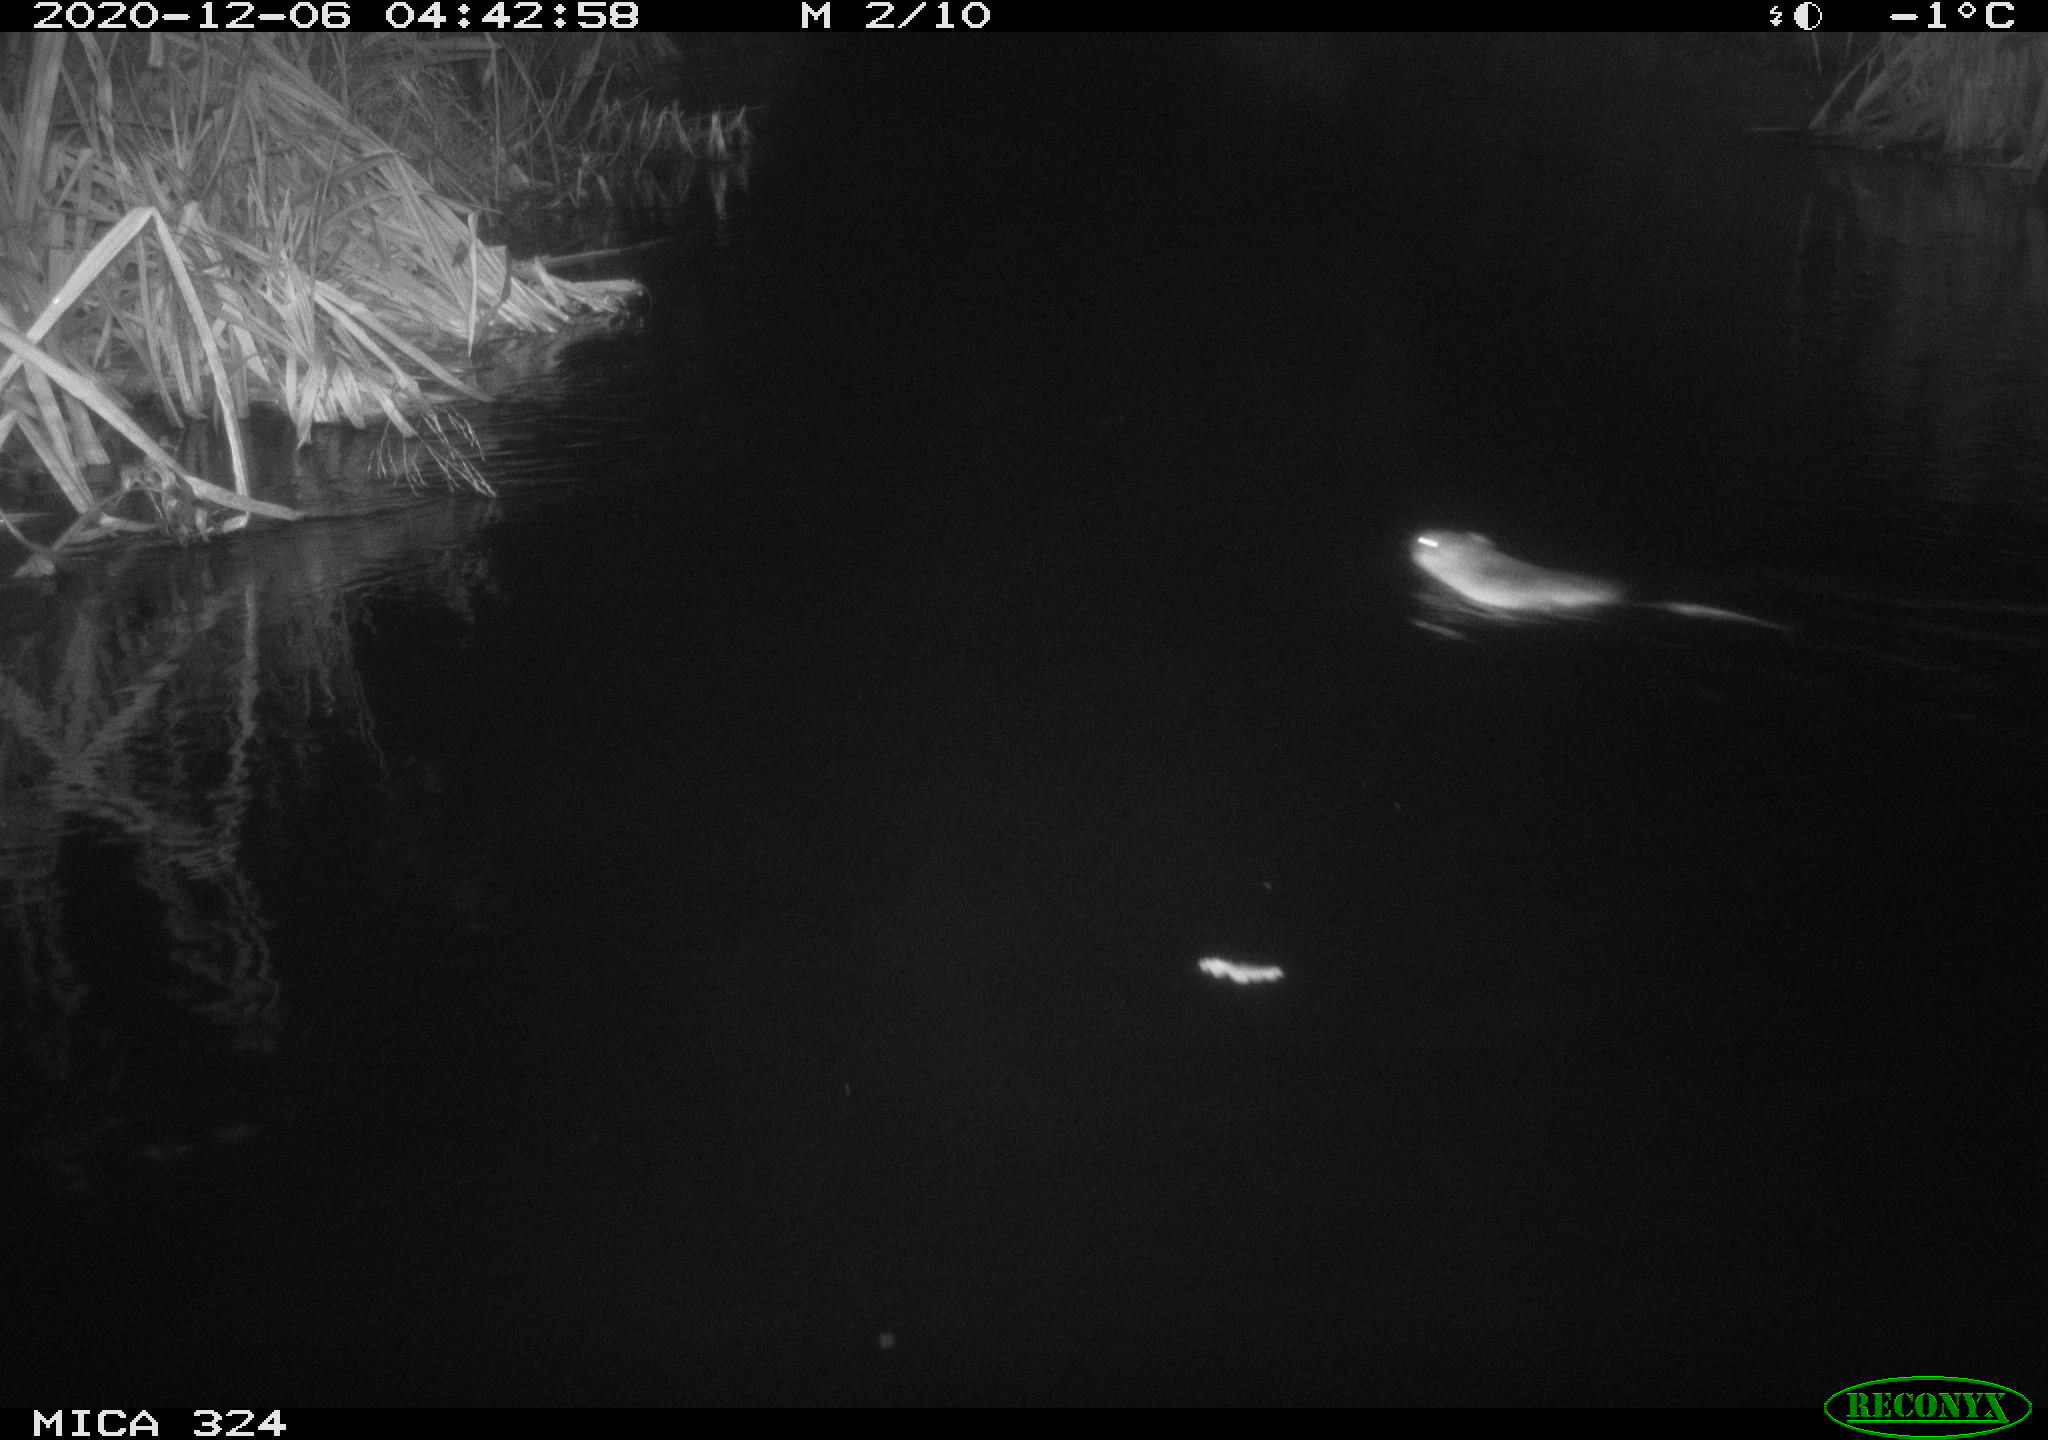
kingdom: Animalia
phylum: Chordata
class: Mammalia
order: Rodentia
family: Cricetidae
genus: Ondatra
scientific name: Ondatra zibethicus
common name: Muskrat
